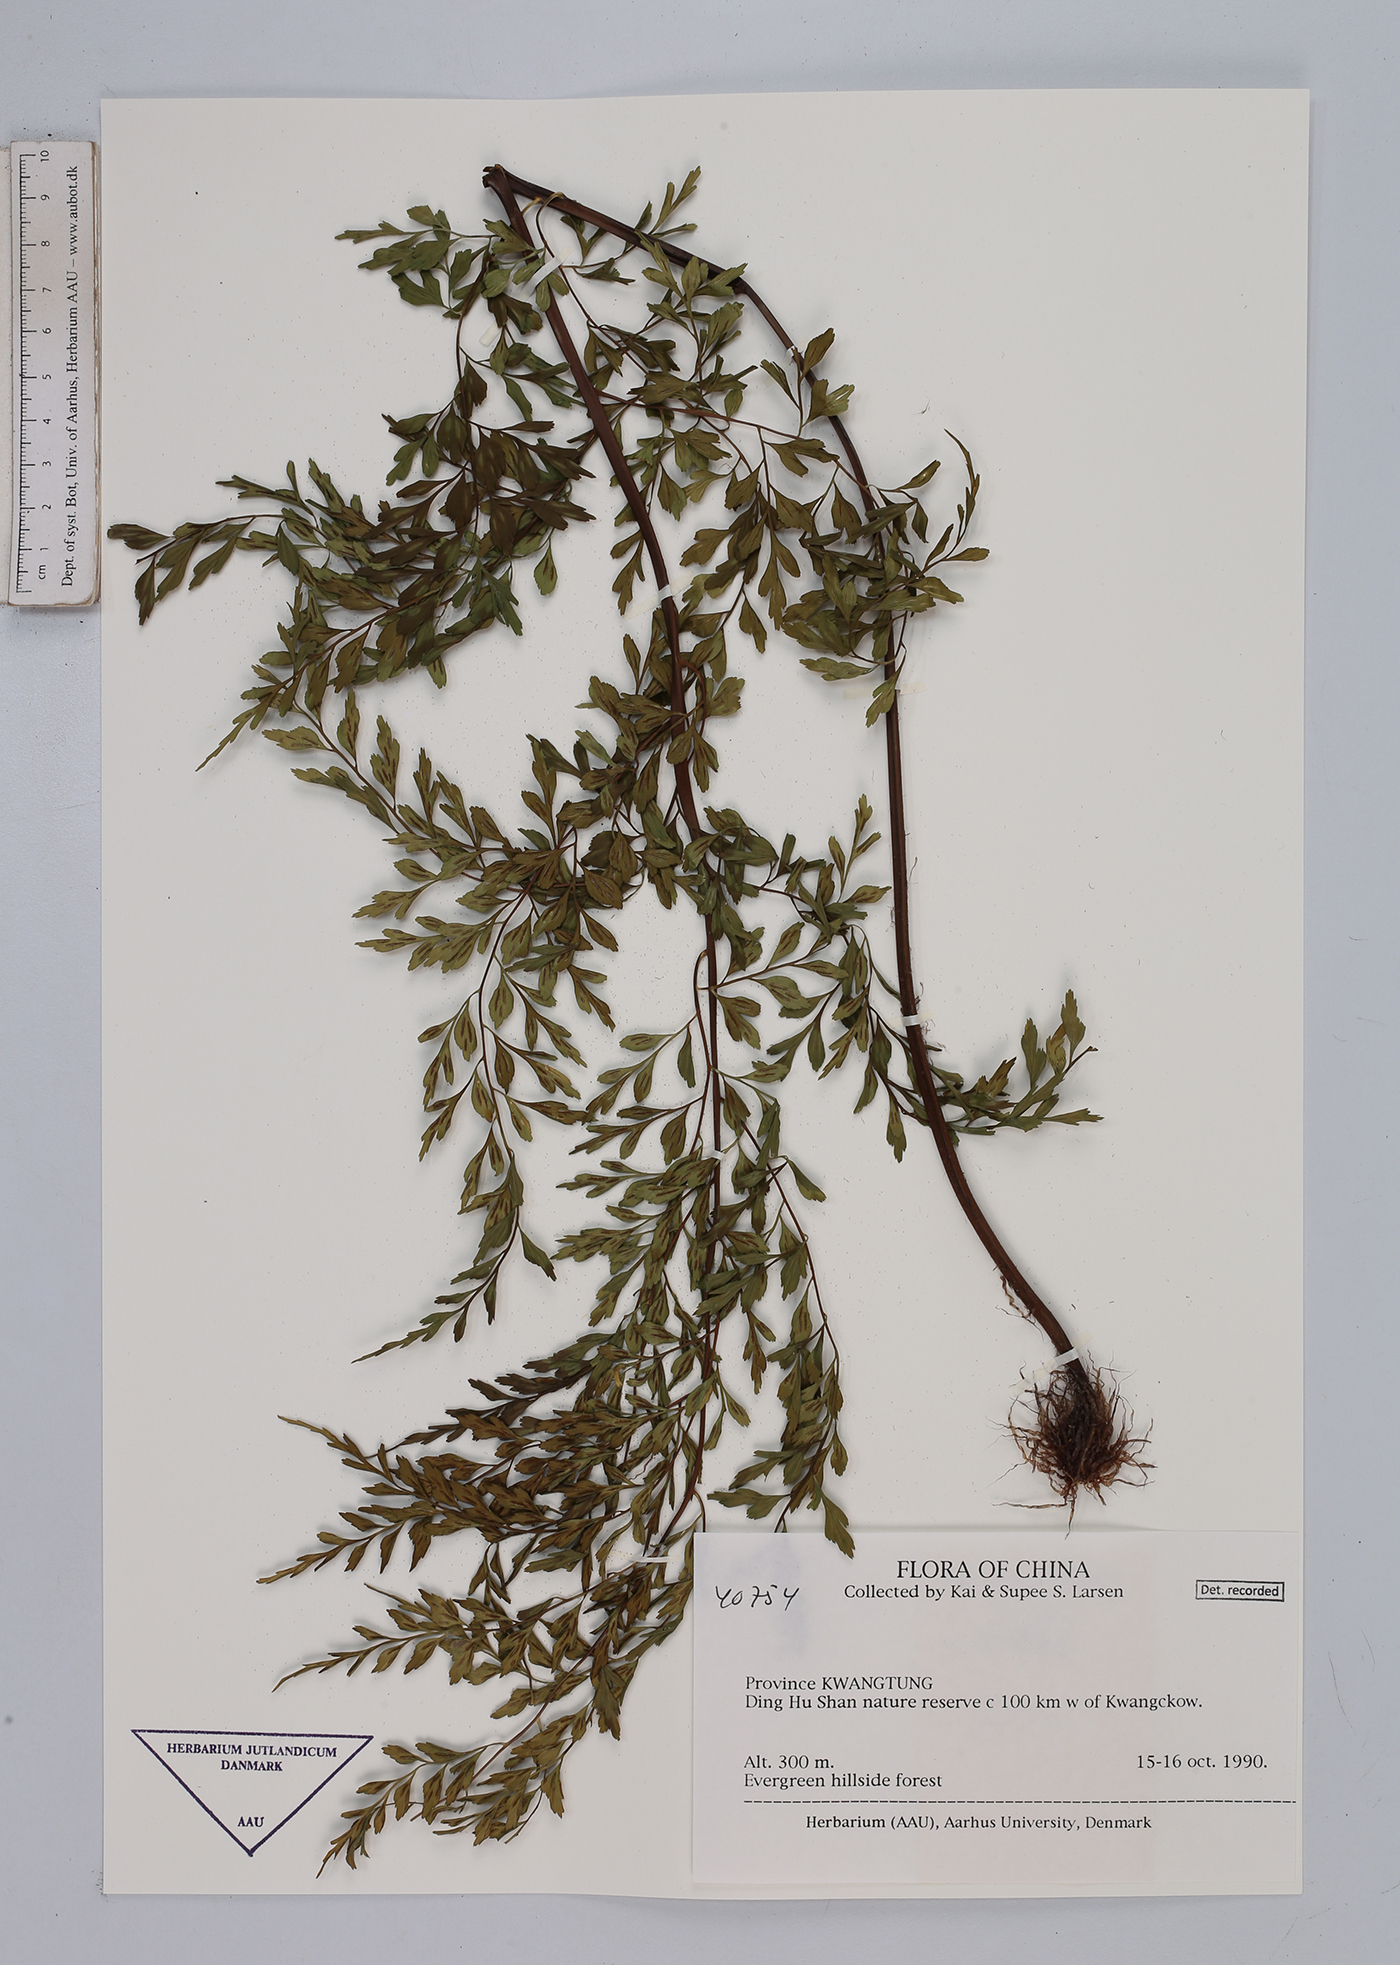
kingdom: Plantae
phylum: Tracheophyta
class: Polypodiopsida
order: Polypodiales
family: Aspleniaceae
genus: Asplenium
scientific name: Asplenium
